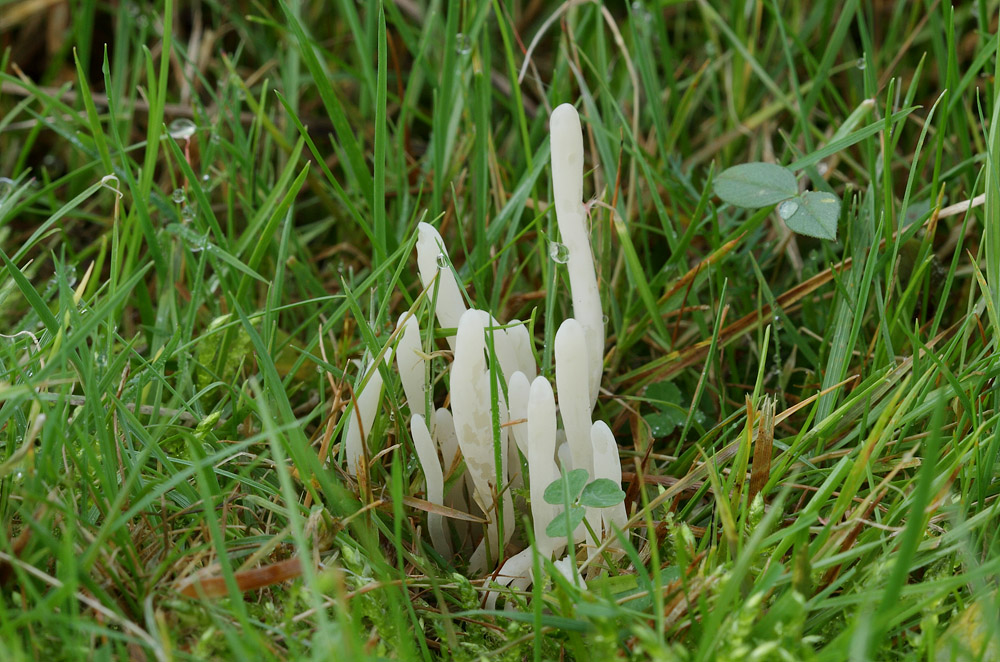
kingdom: Fungi
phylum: Basidiomycota
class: Agaricomycetes
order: Agaricales
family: Clavariaceae
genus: Clavaria
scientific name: Clavaria falcata
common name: hvid køllesvamp
